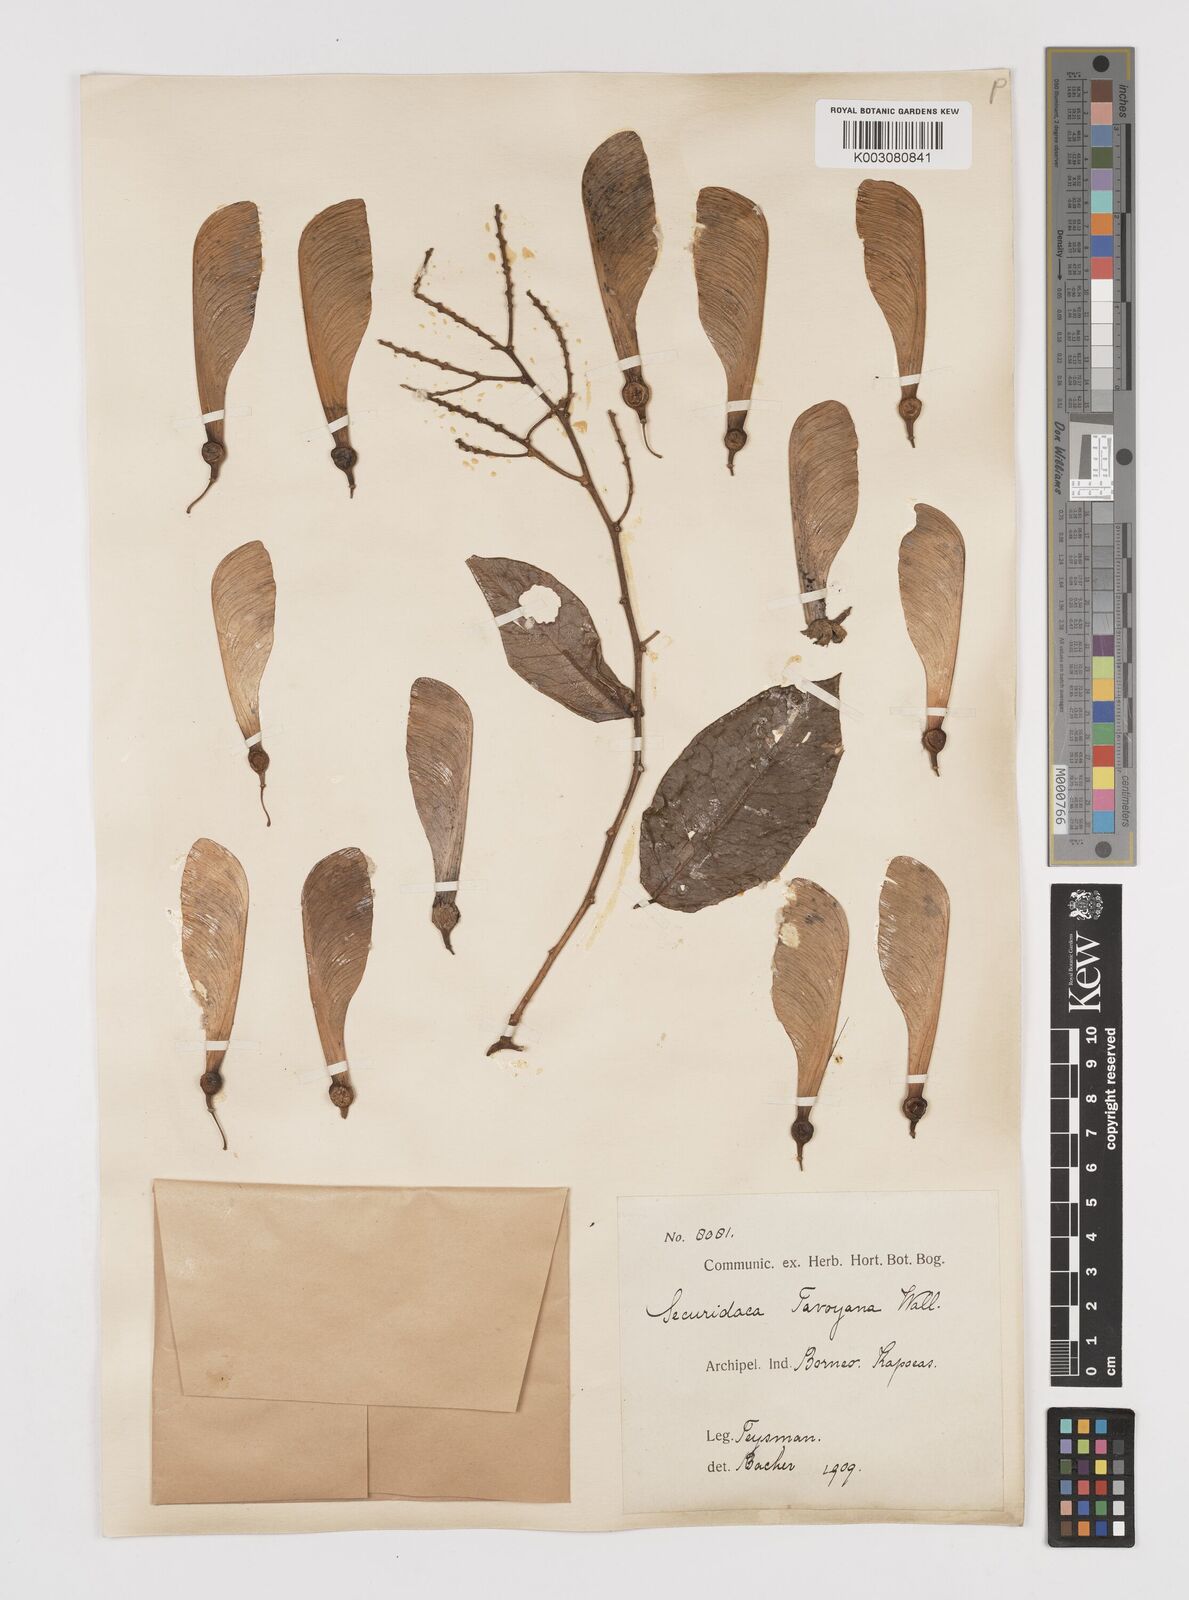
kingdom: Plantae
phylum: Tracheophyta
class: Magnoliopsida
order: Fabales
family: Polygalaceae
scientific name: Polygalaceae
